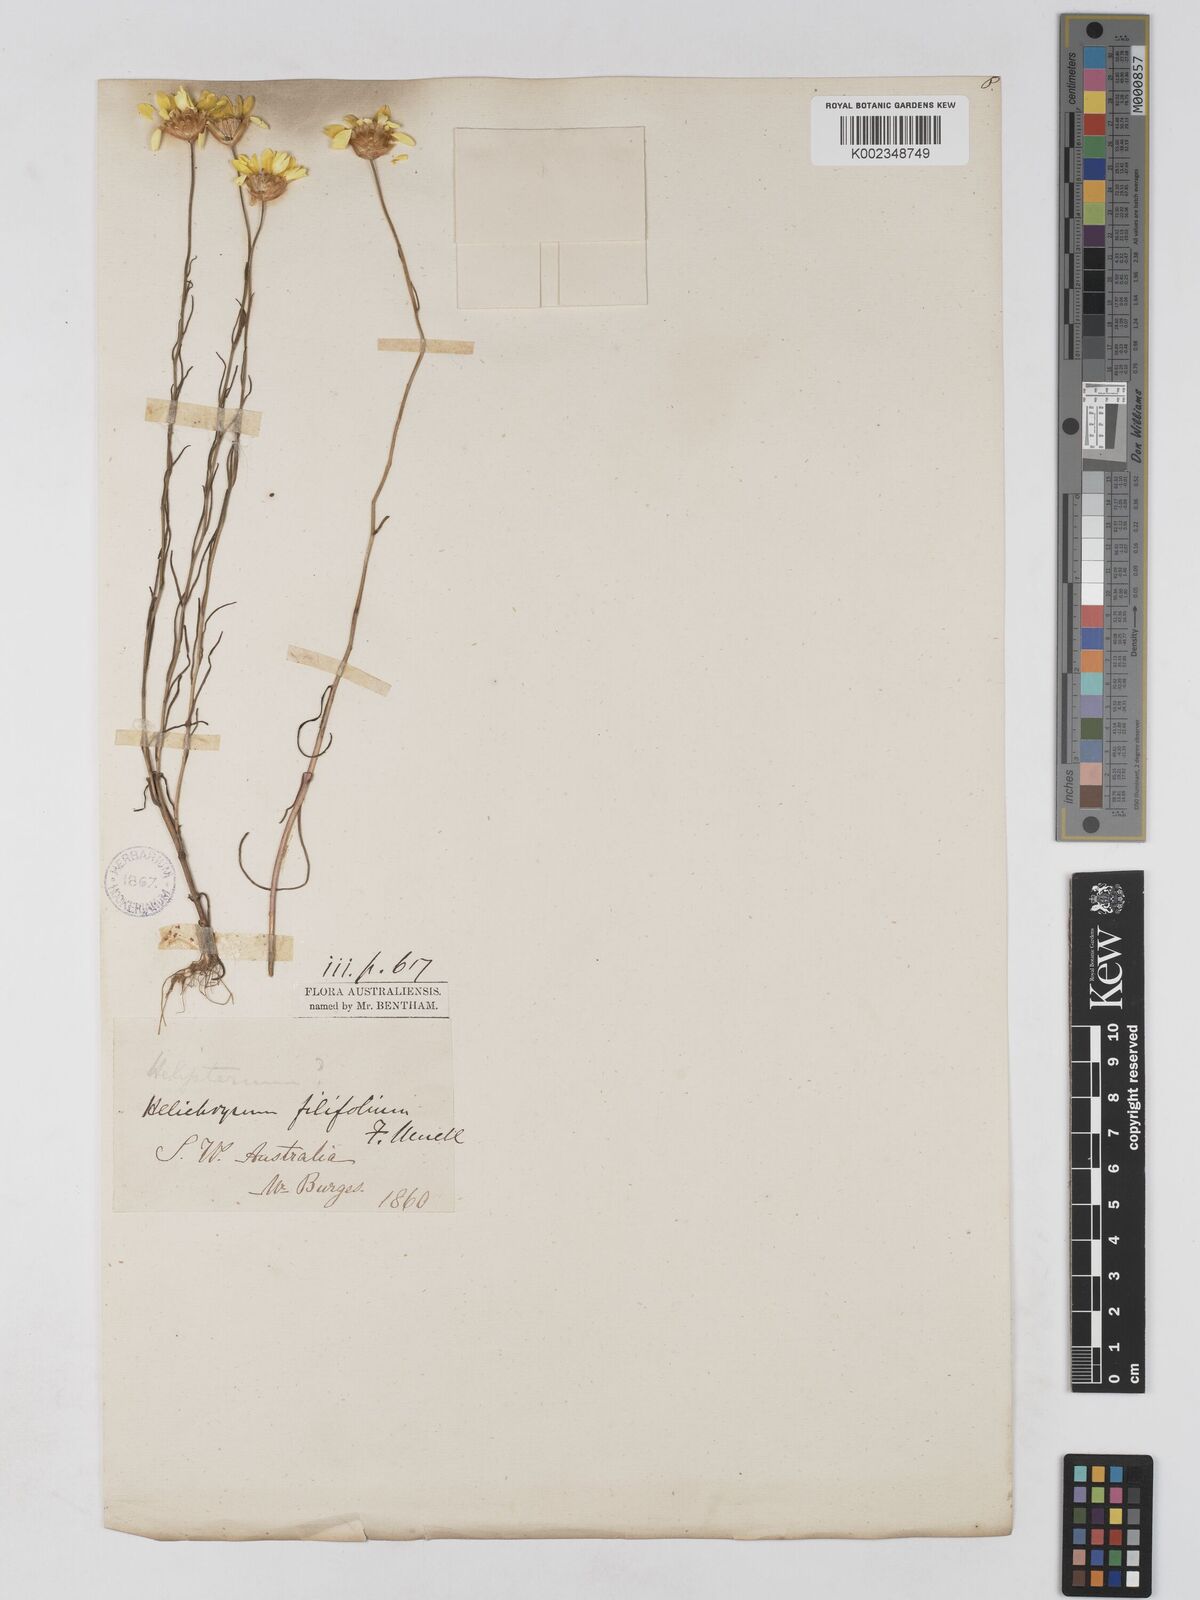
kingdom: Plantae
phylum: Tracheophyta
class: Magnoliopsida
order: Asterales
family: Asteraceae
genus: Schoenia
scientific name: Schoenia filifolia
